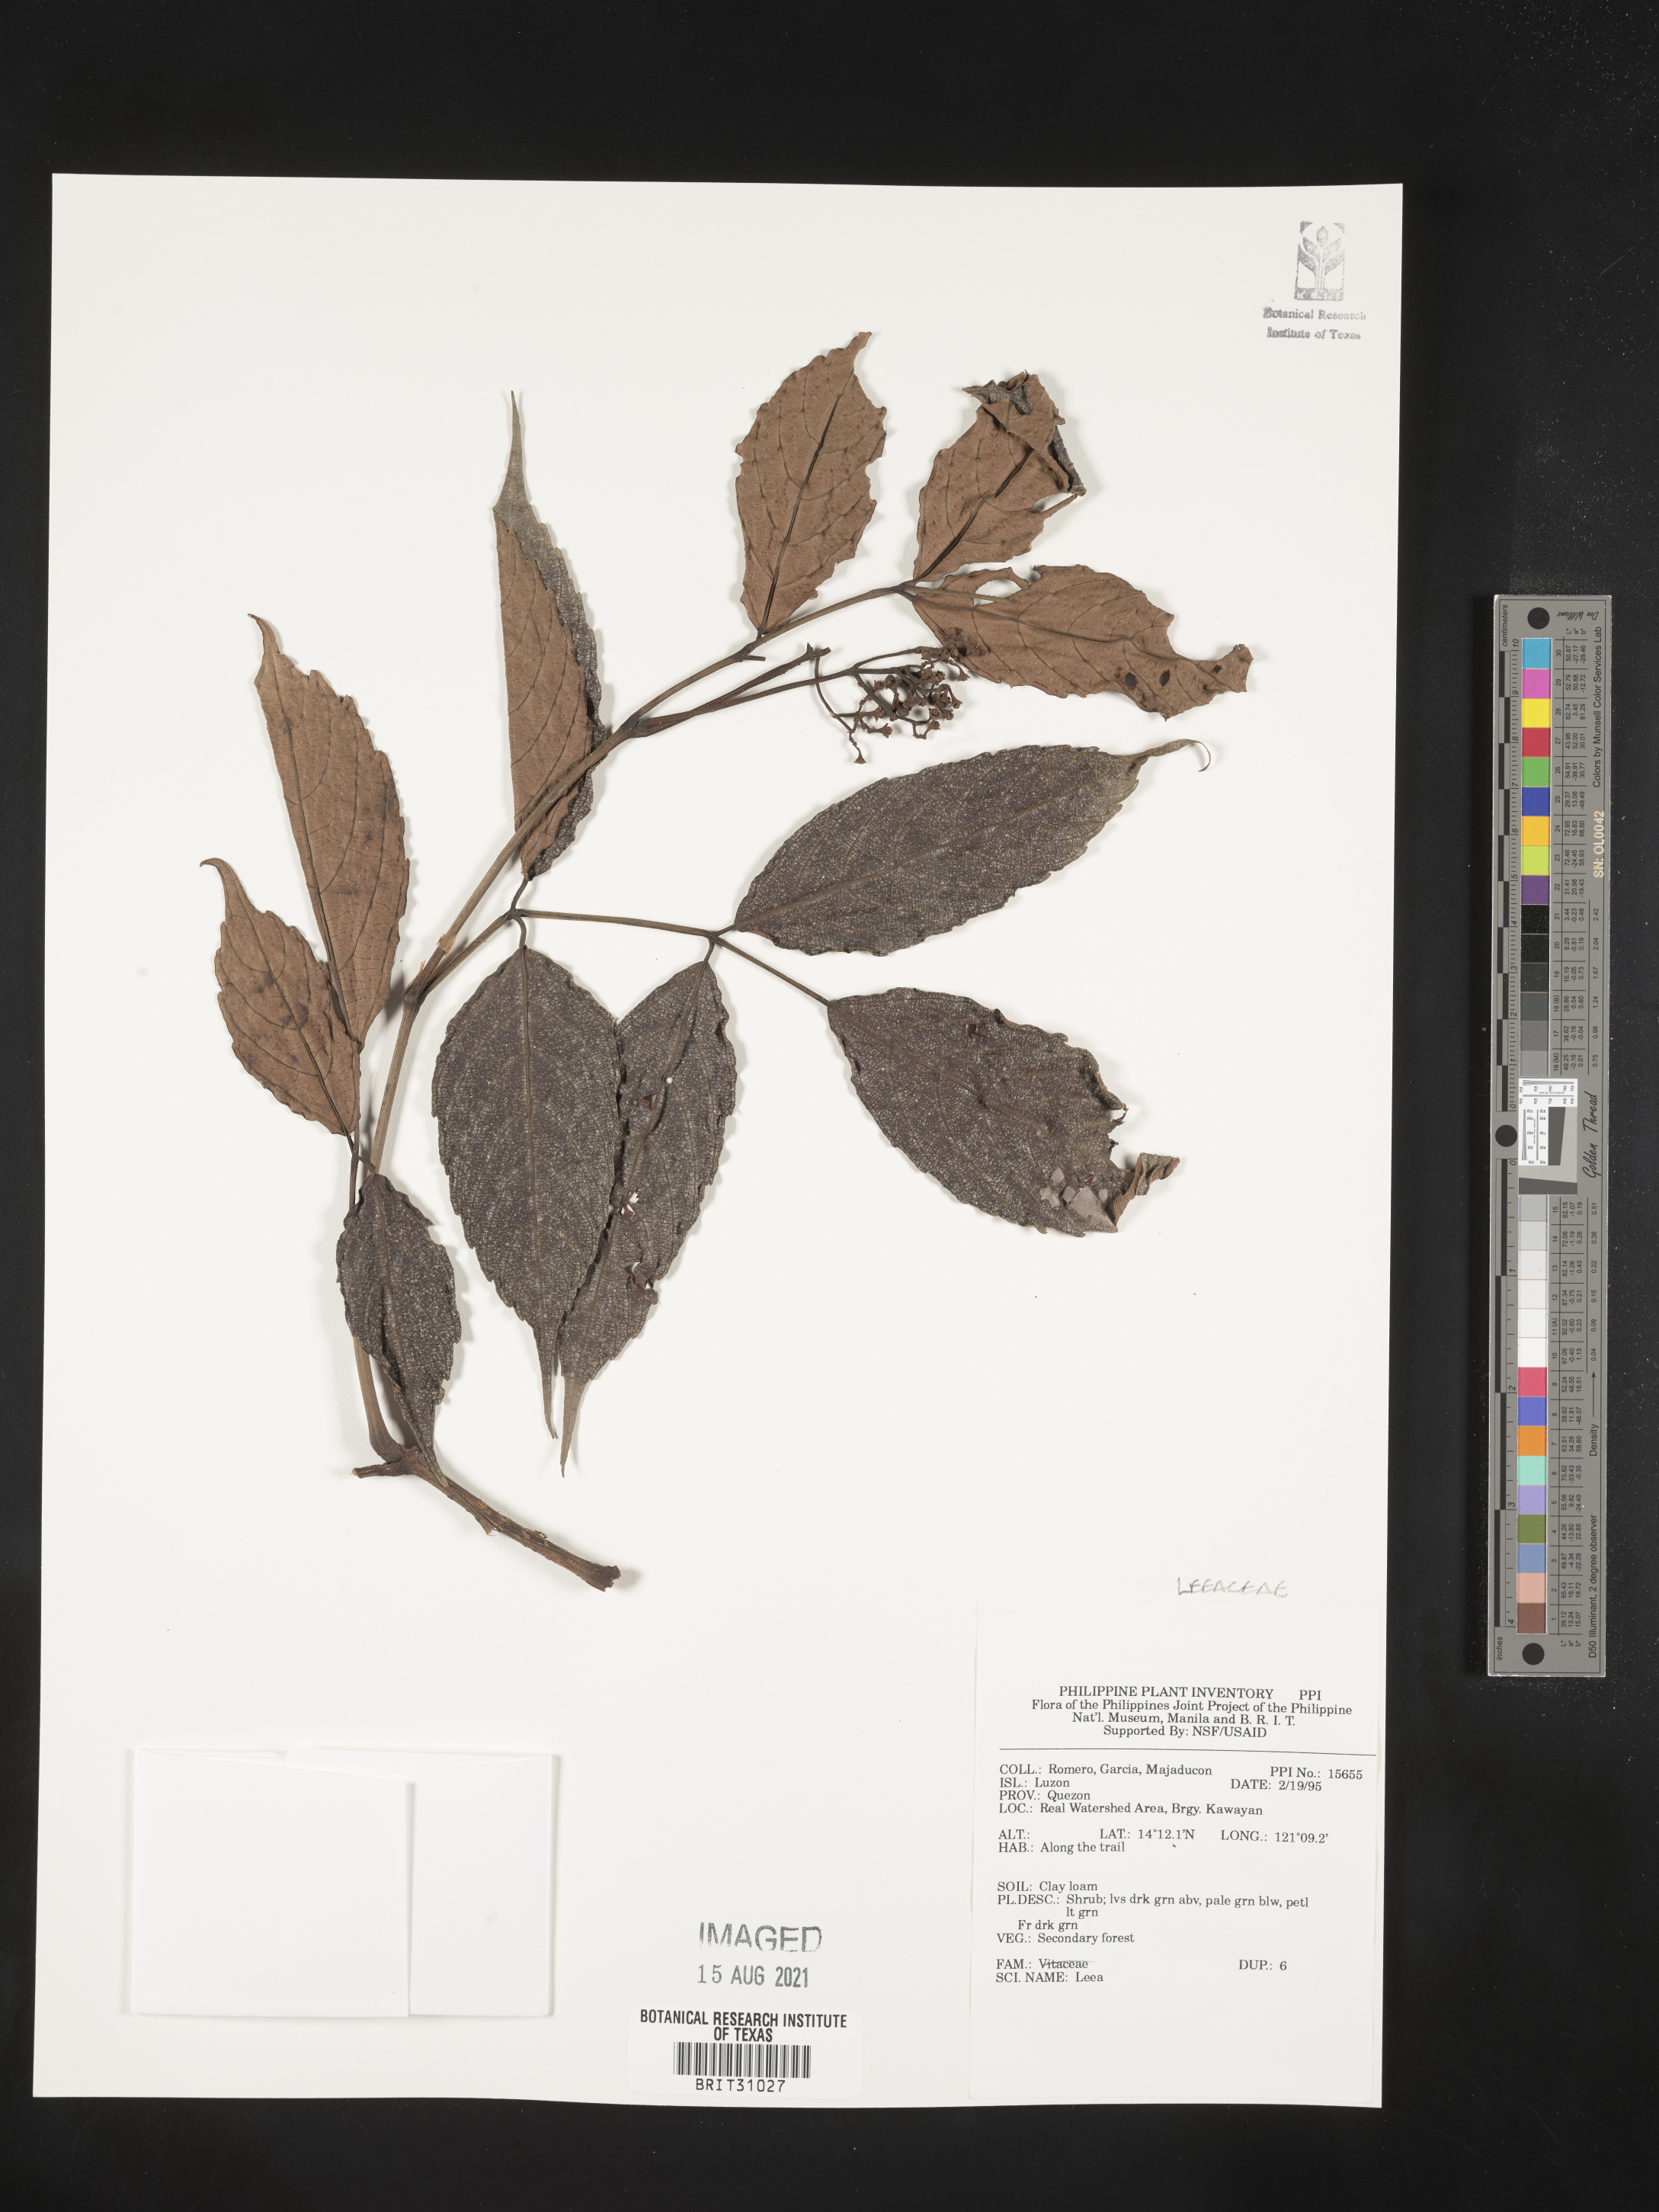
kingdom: Plantae
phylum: Tracheophyta
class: Magnoliopsida
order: Vitales
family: Vitaceae
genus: Leea
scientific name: Leea
